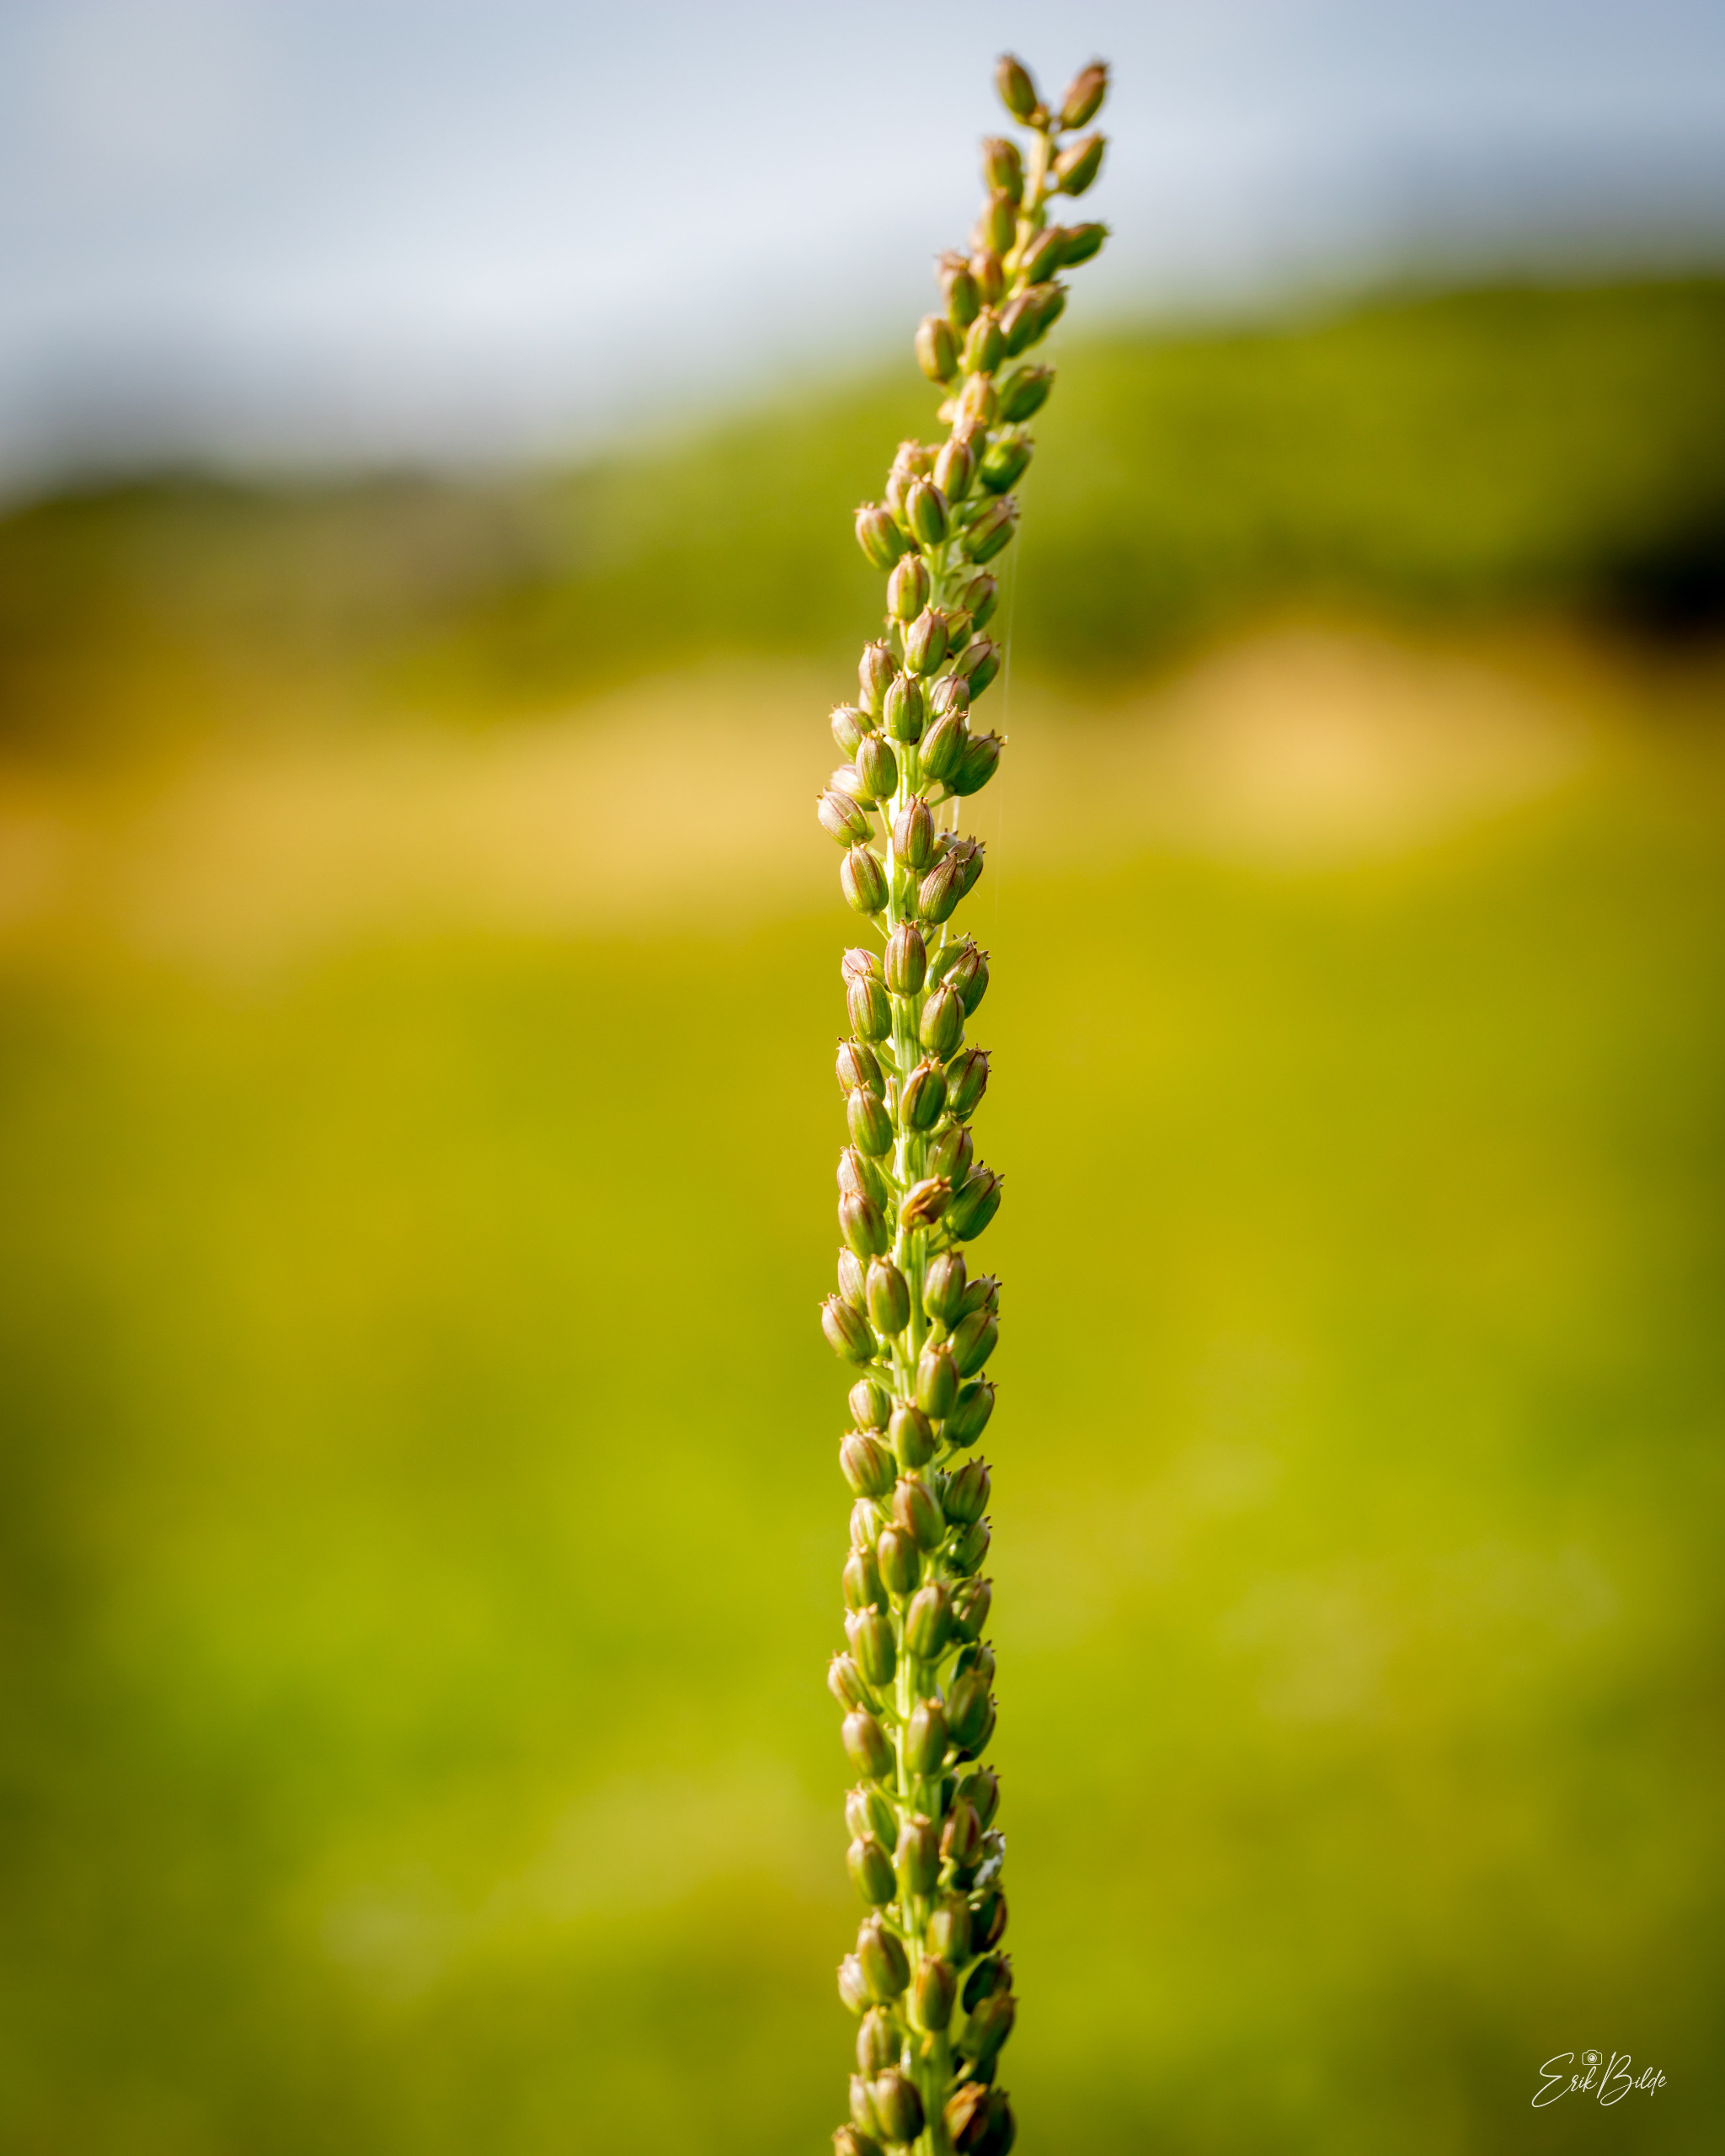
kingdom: Plantae
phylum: Tracheophyta
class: Liliopsida
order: Alismatales
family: Juncaginaceae
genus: Triglochin
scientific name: Triglochin maritima
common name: Strand-trehage
